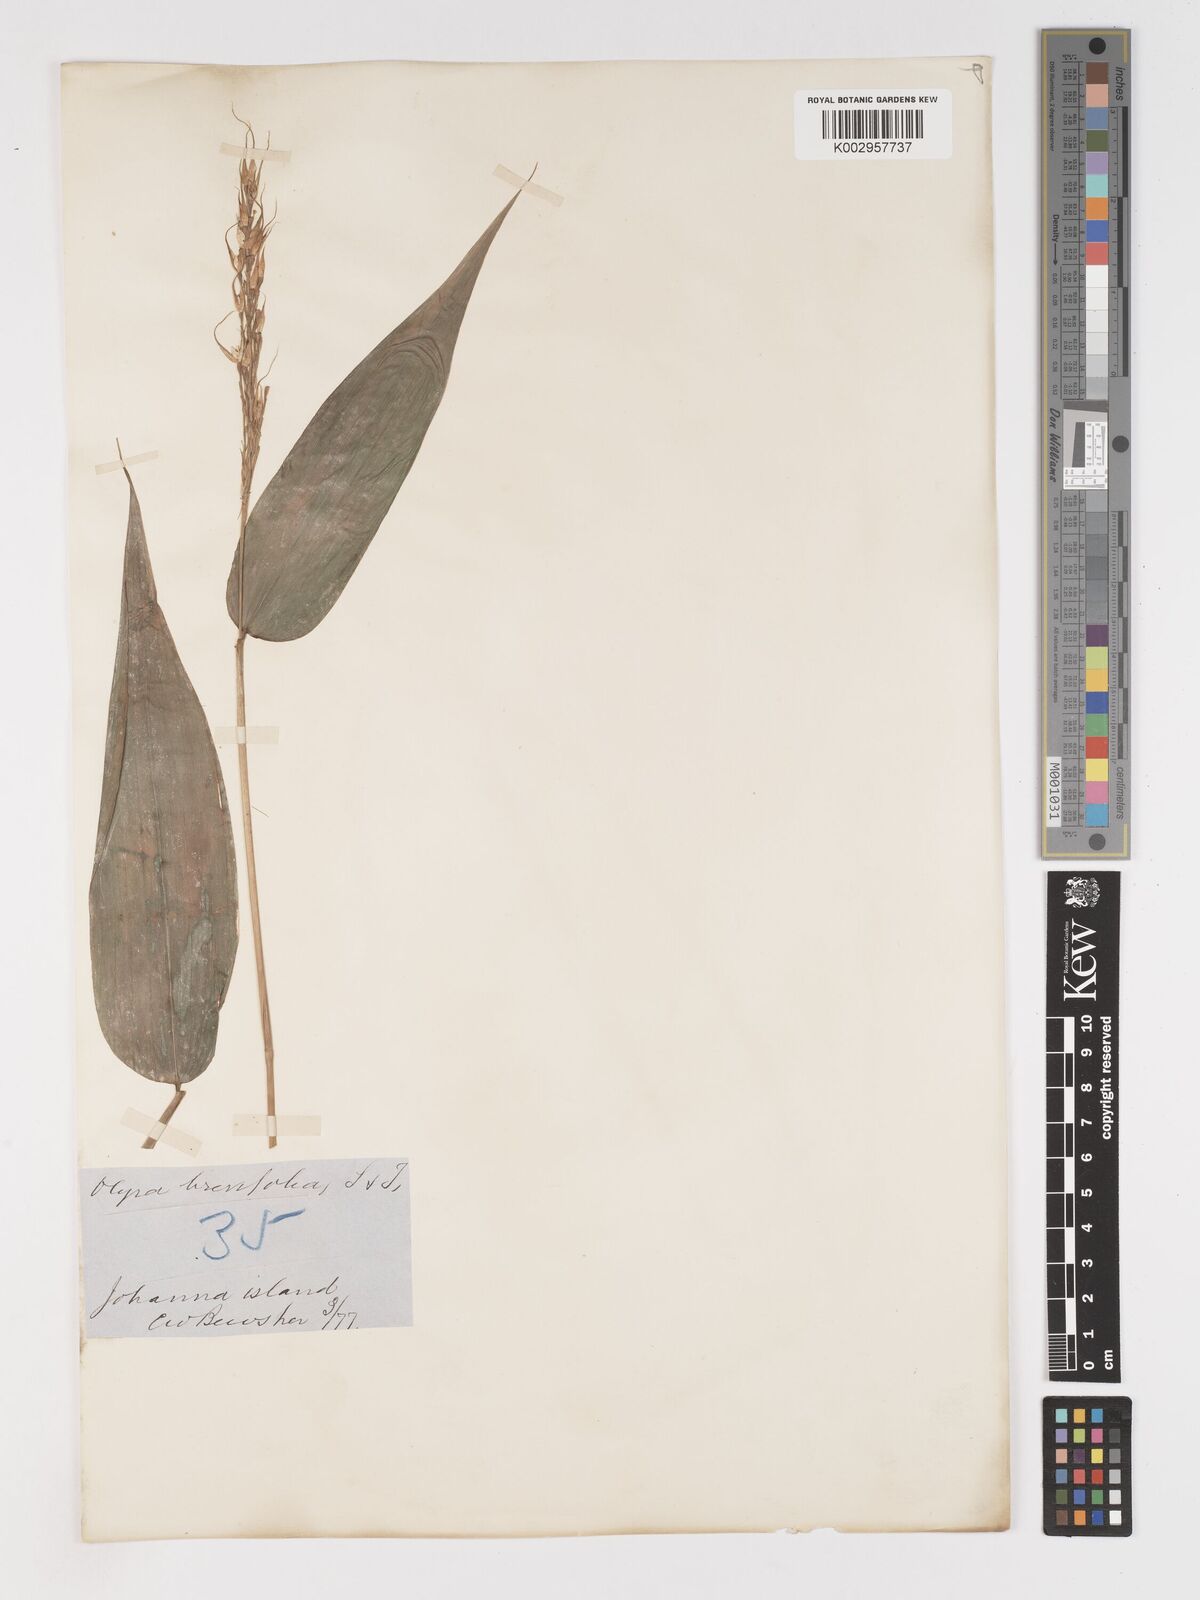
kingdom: Plantae
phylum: Tracheophyta
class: Liliopsida
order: Poales
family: Poaceae
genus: Olyra
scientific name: Olyra latifolia
